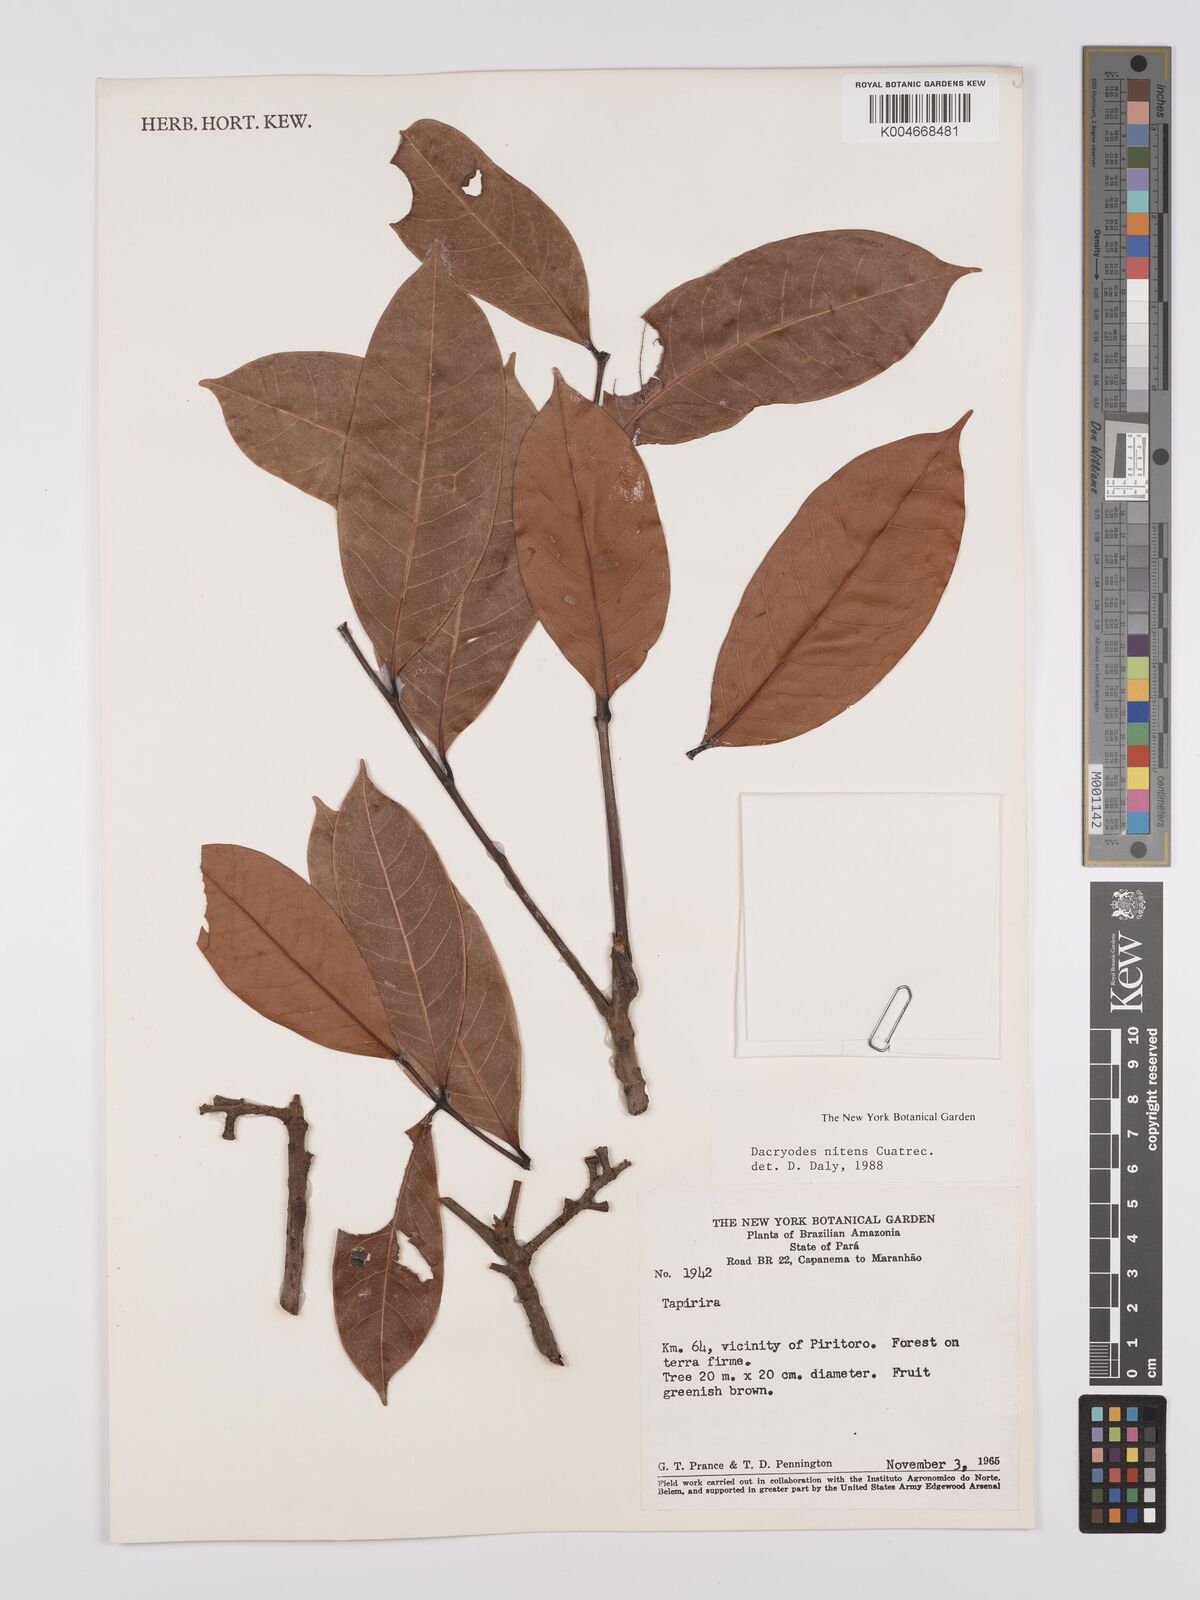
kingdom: Plantae
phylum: Tracheophyta
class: Magnoliopsida
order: Sapindales
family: Burseraceae
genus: Dacryodes
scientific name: Dacryodes nitens
